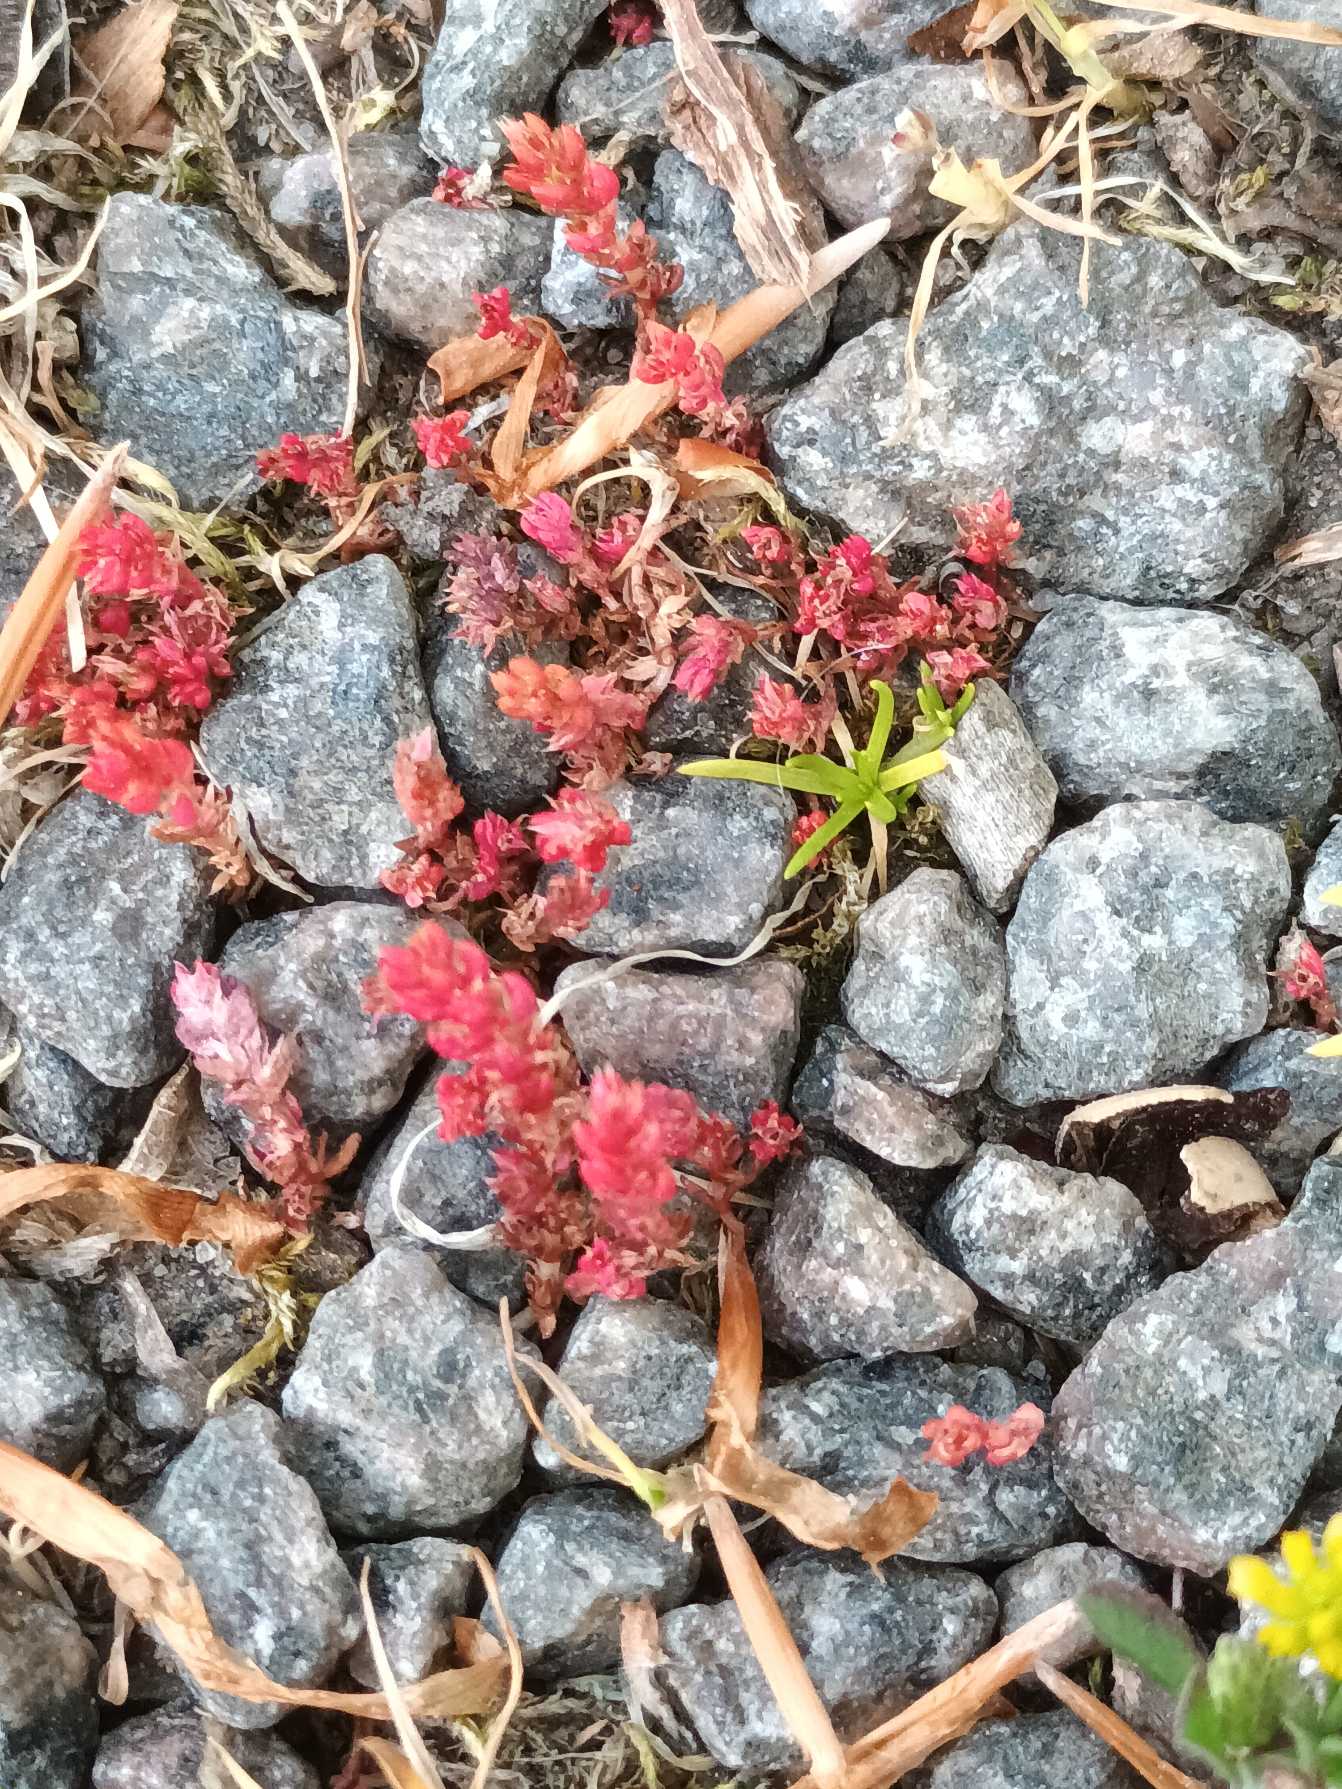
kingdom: Plantae
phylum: Tracheophyta
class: Magnoliopsida
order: Saxifragales
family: Crassulaceae
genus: Crassula
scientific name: Crassula tillaea
